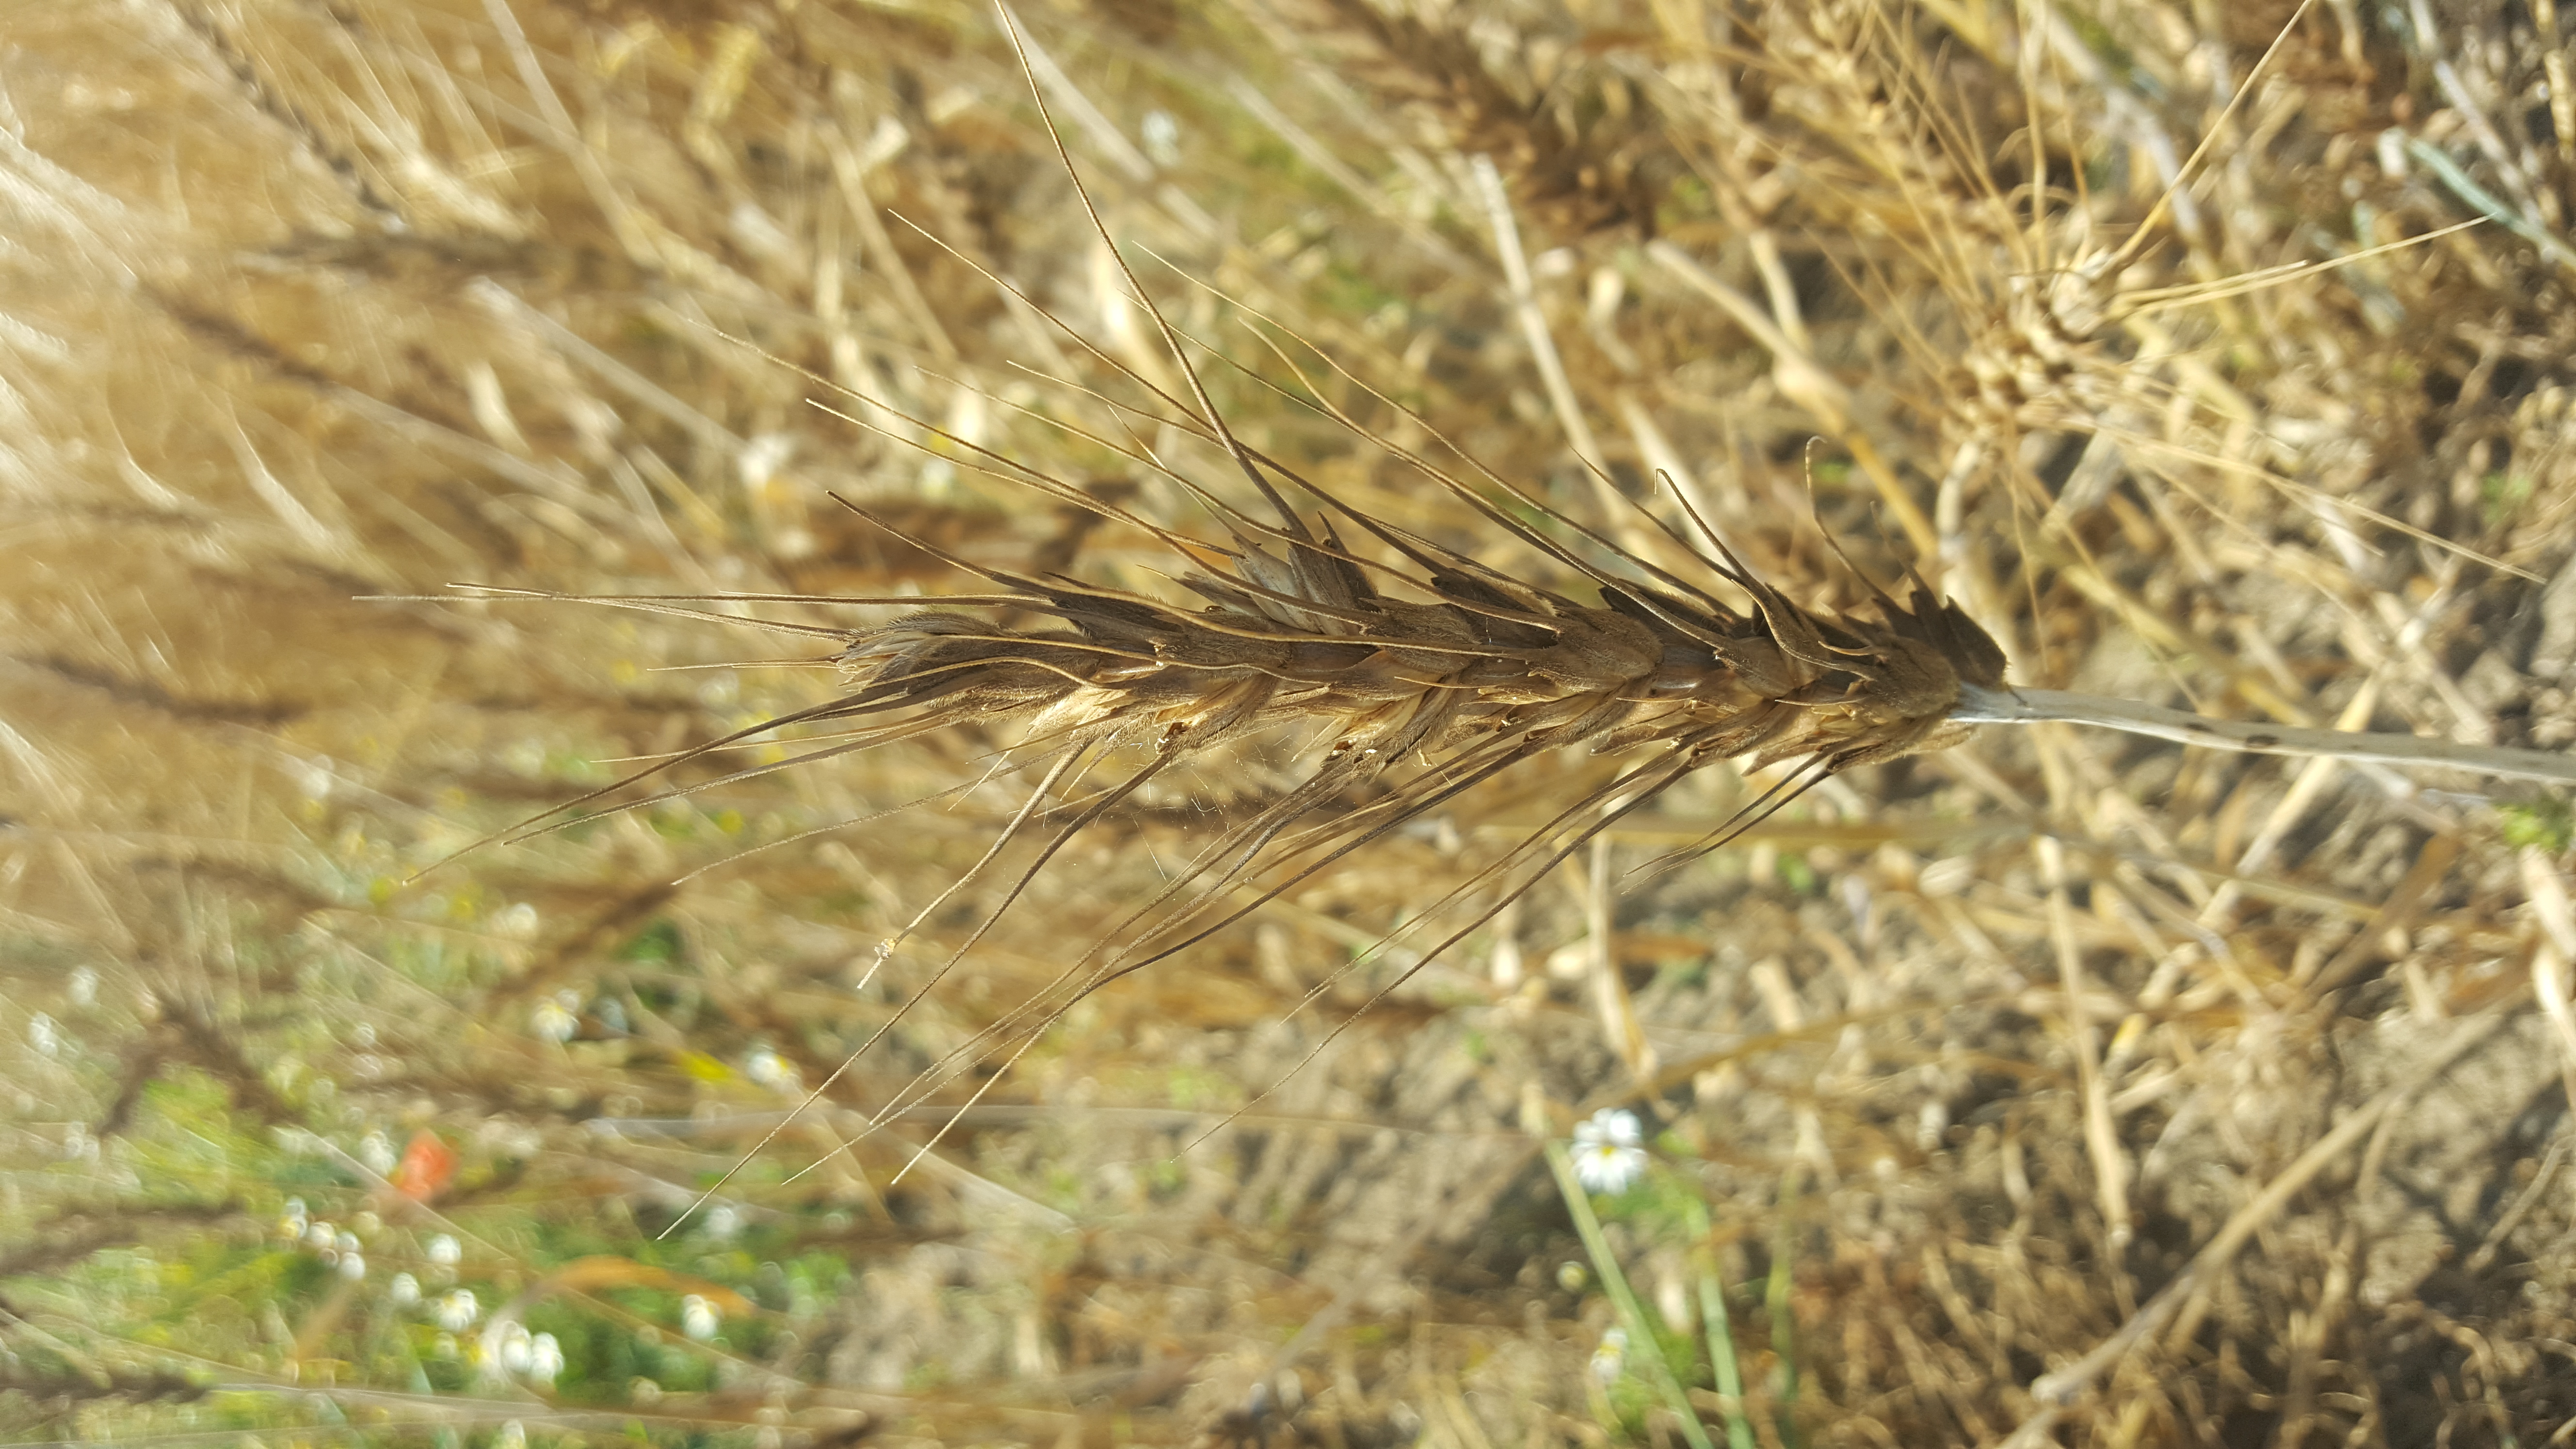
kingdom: Plantae
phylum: Tracheophyta
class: Liliopsida
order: Poales
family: Poaceae
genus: Triticum
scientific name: Triticum aestivum
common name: Common wheat
